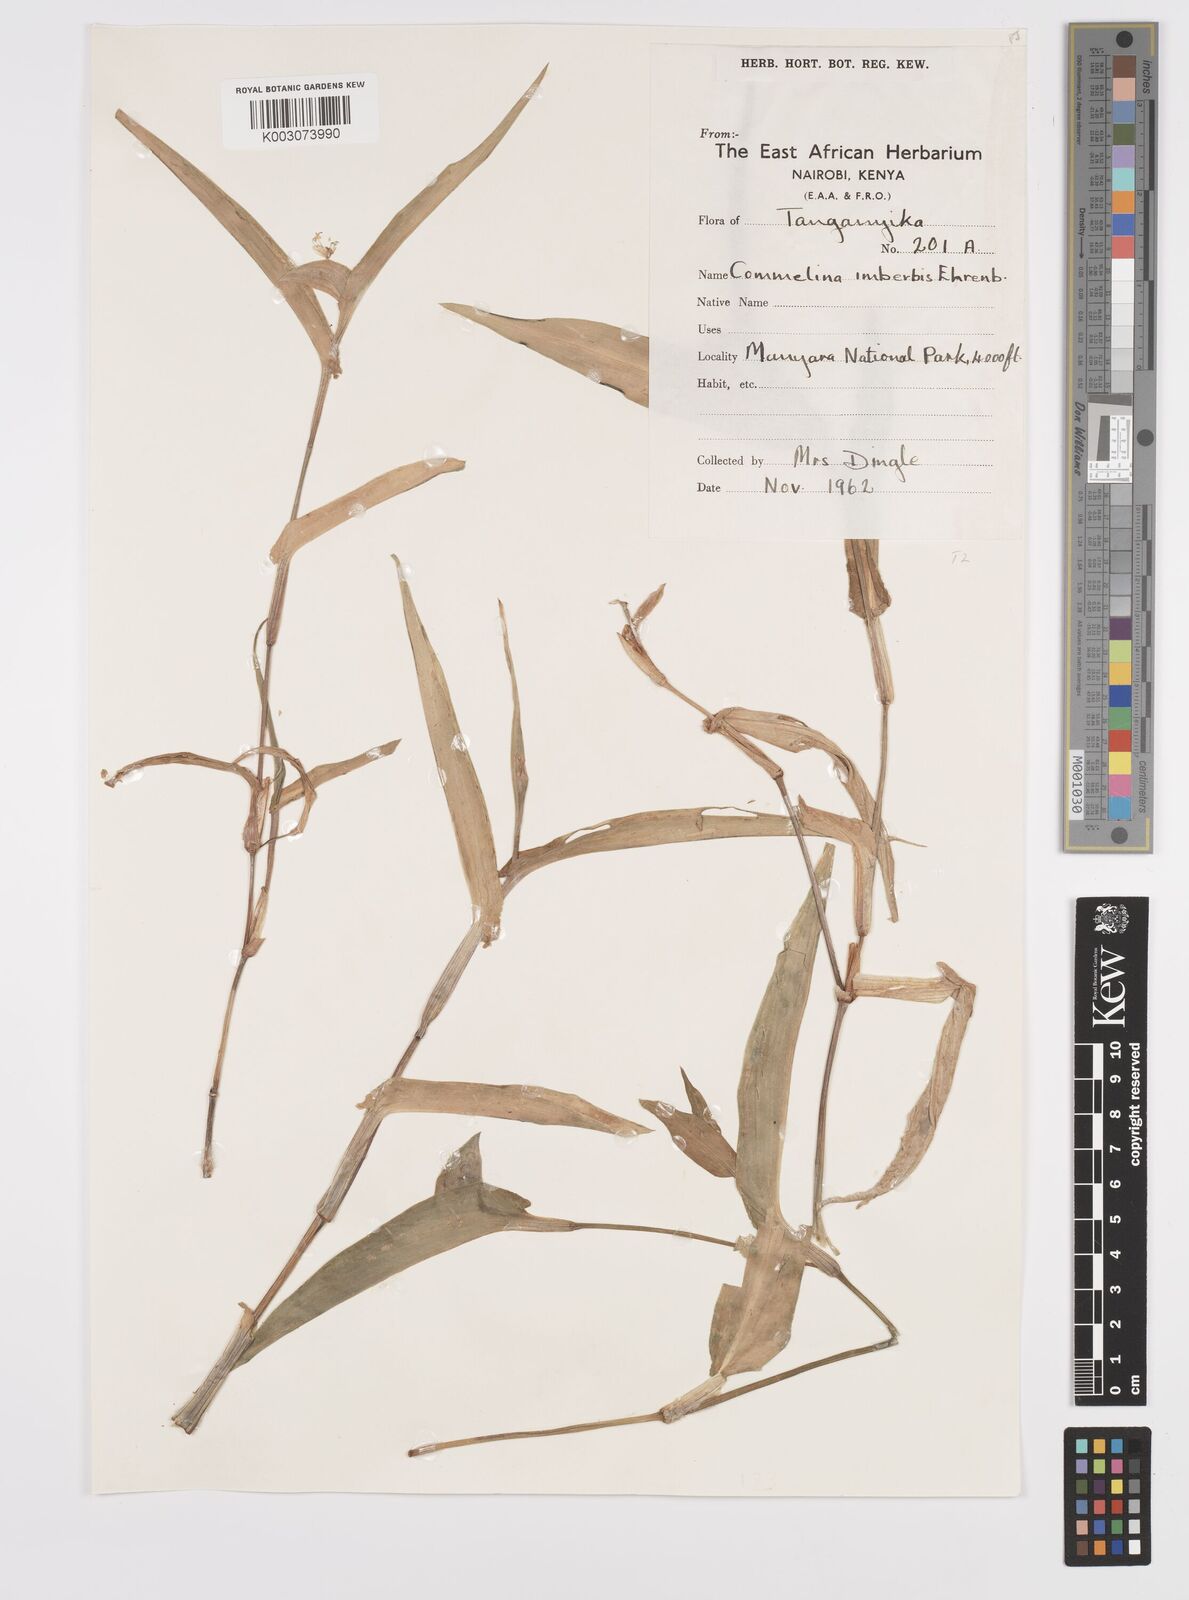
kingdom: Plantae
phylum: Tracheophyta
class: Liliopsida
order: Commelinales
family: Commelinaceae
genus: Commelina
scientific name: Commelina imberbis
